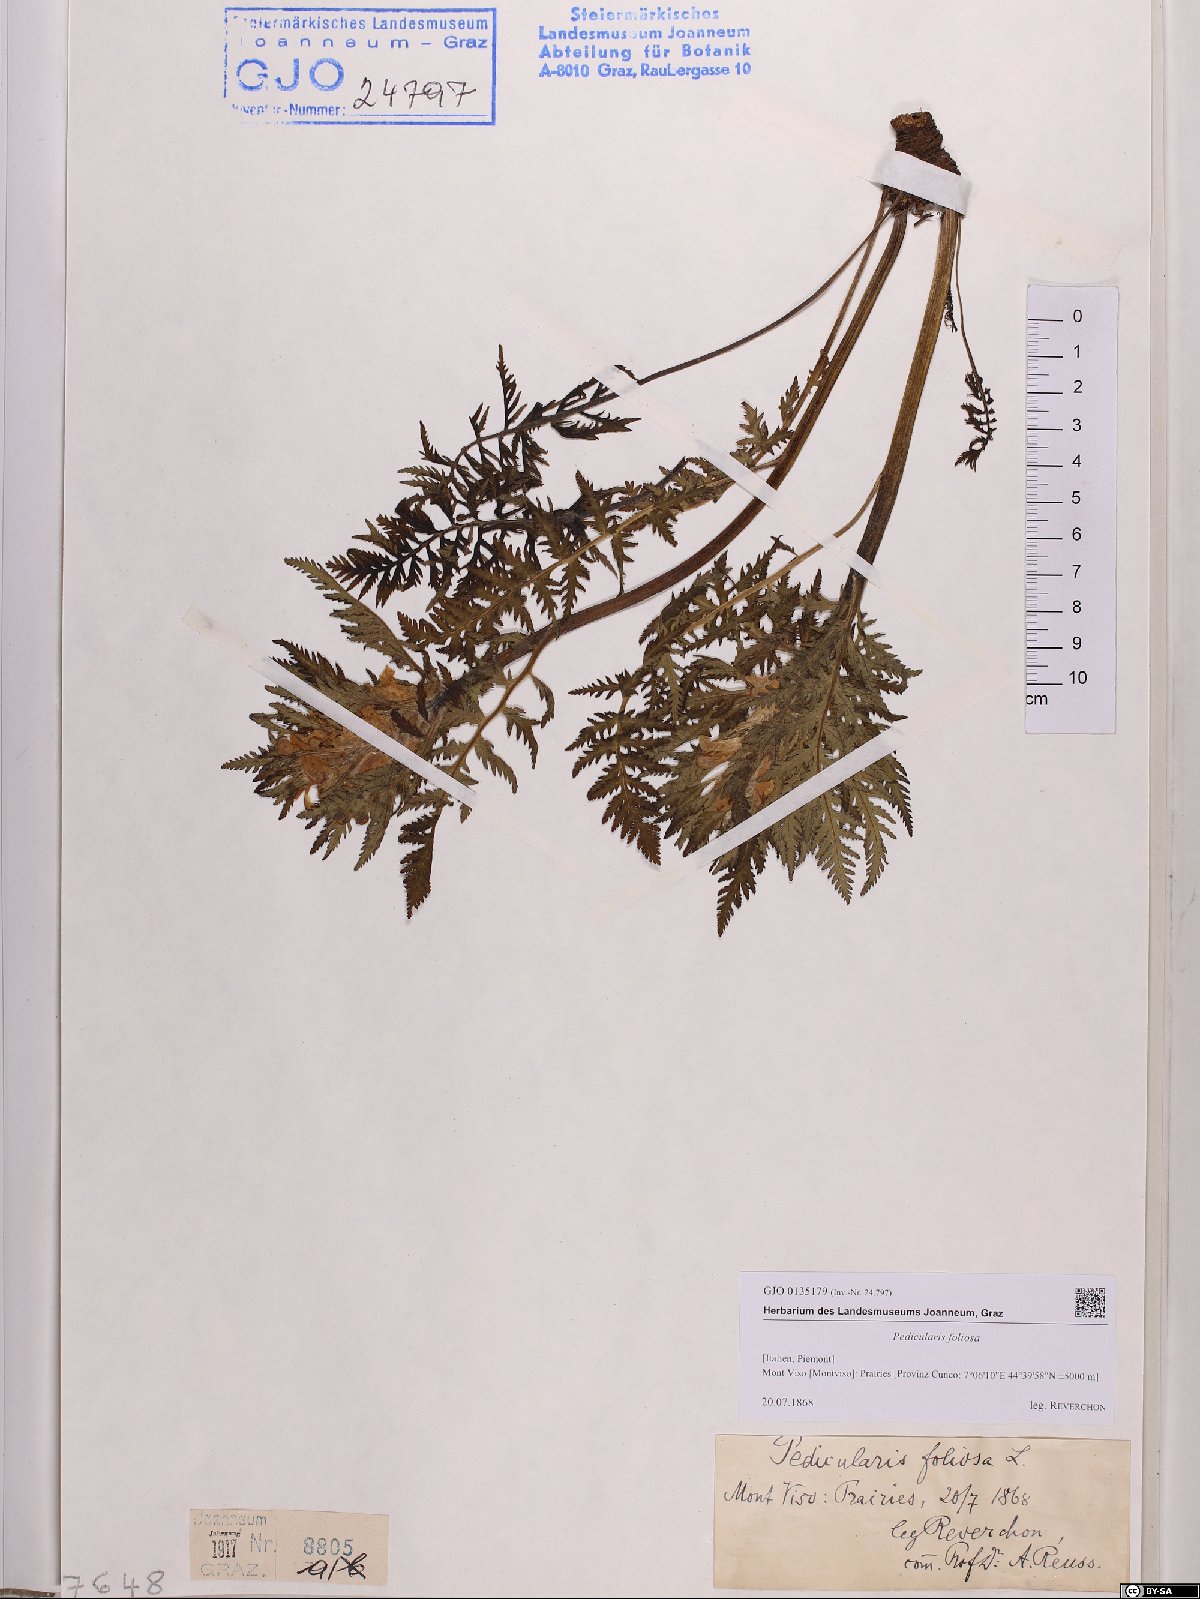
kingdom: Plantae
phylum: Tracheophyta
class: Magnoliopsida
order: Lamiales
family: Orobanchaceae
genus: Pedicularis
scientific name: Pedicularis foliosa
